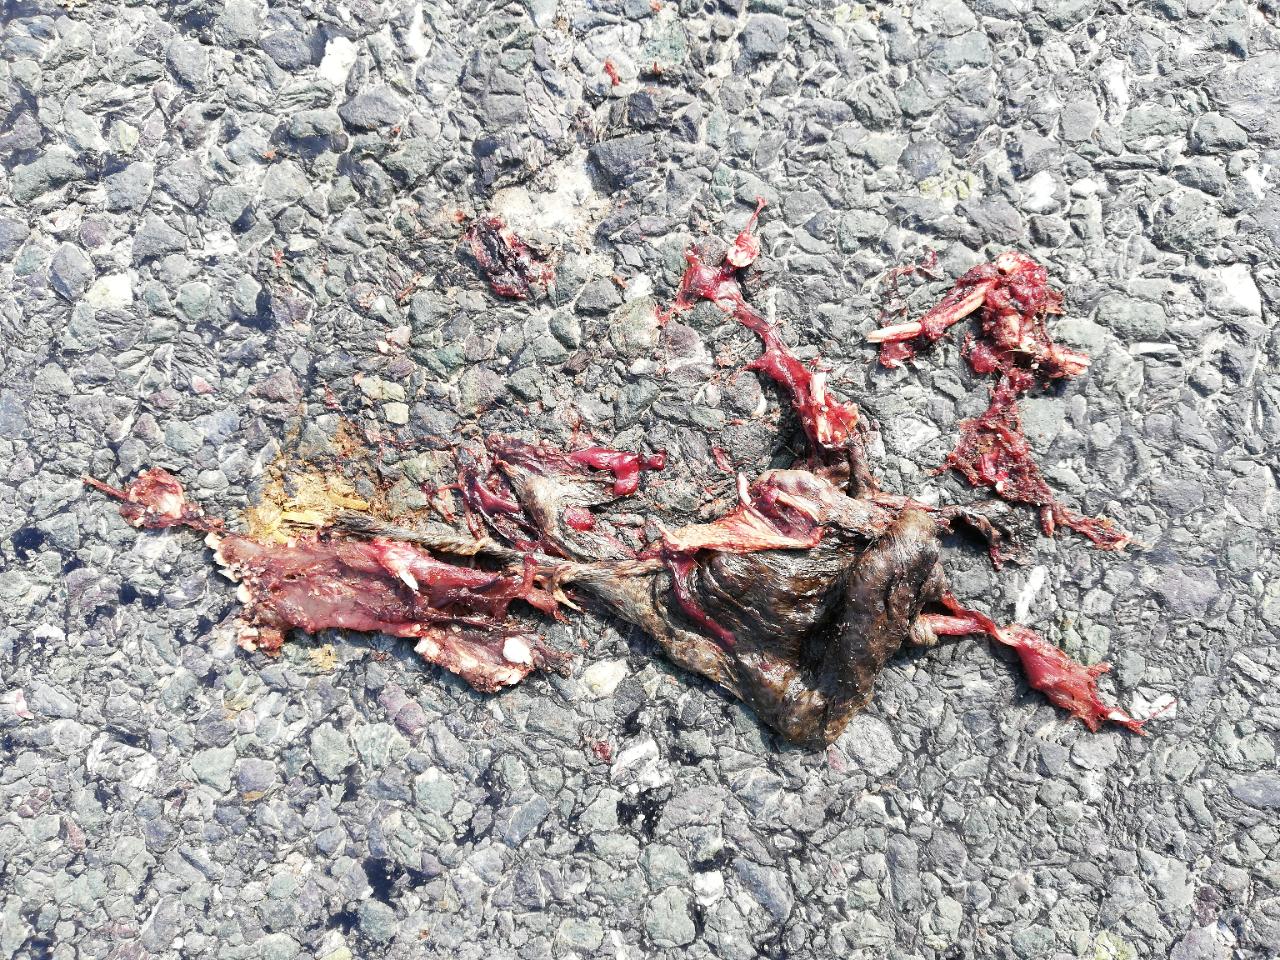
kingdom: Animalia
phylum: Chordata
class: Amphibia
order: Anura
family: Bufonidae
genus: Bufo
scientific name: Bufo bufo
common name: Common toad
